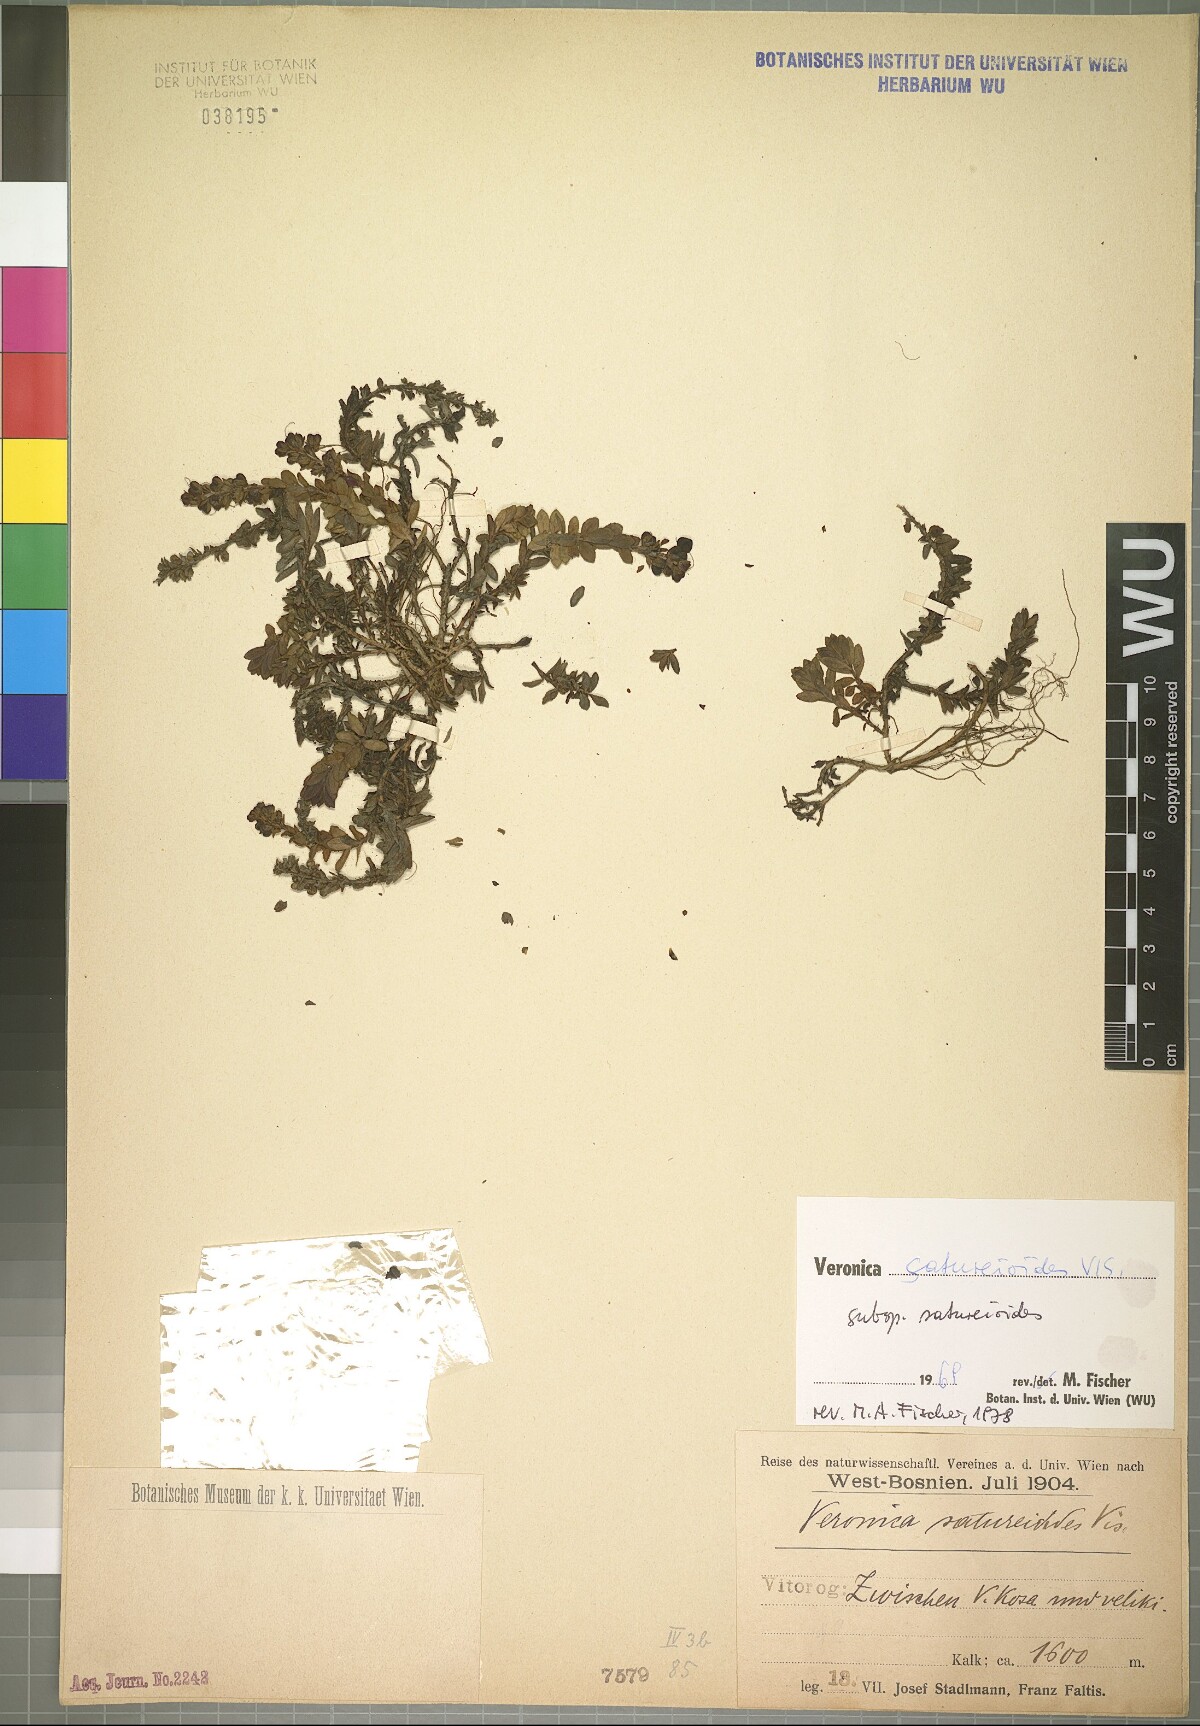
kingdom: Plantae
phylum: Tracheophyta
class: Magnoliopsida
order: Lamiales
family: Plantaginaceae
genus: Veronica
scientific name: Veronica saturejoides
